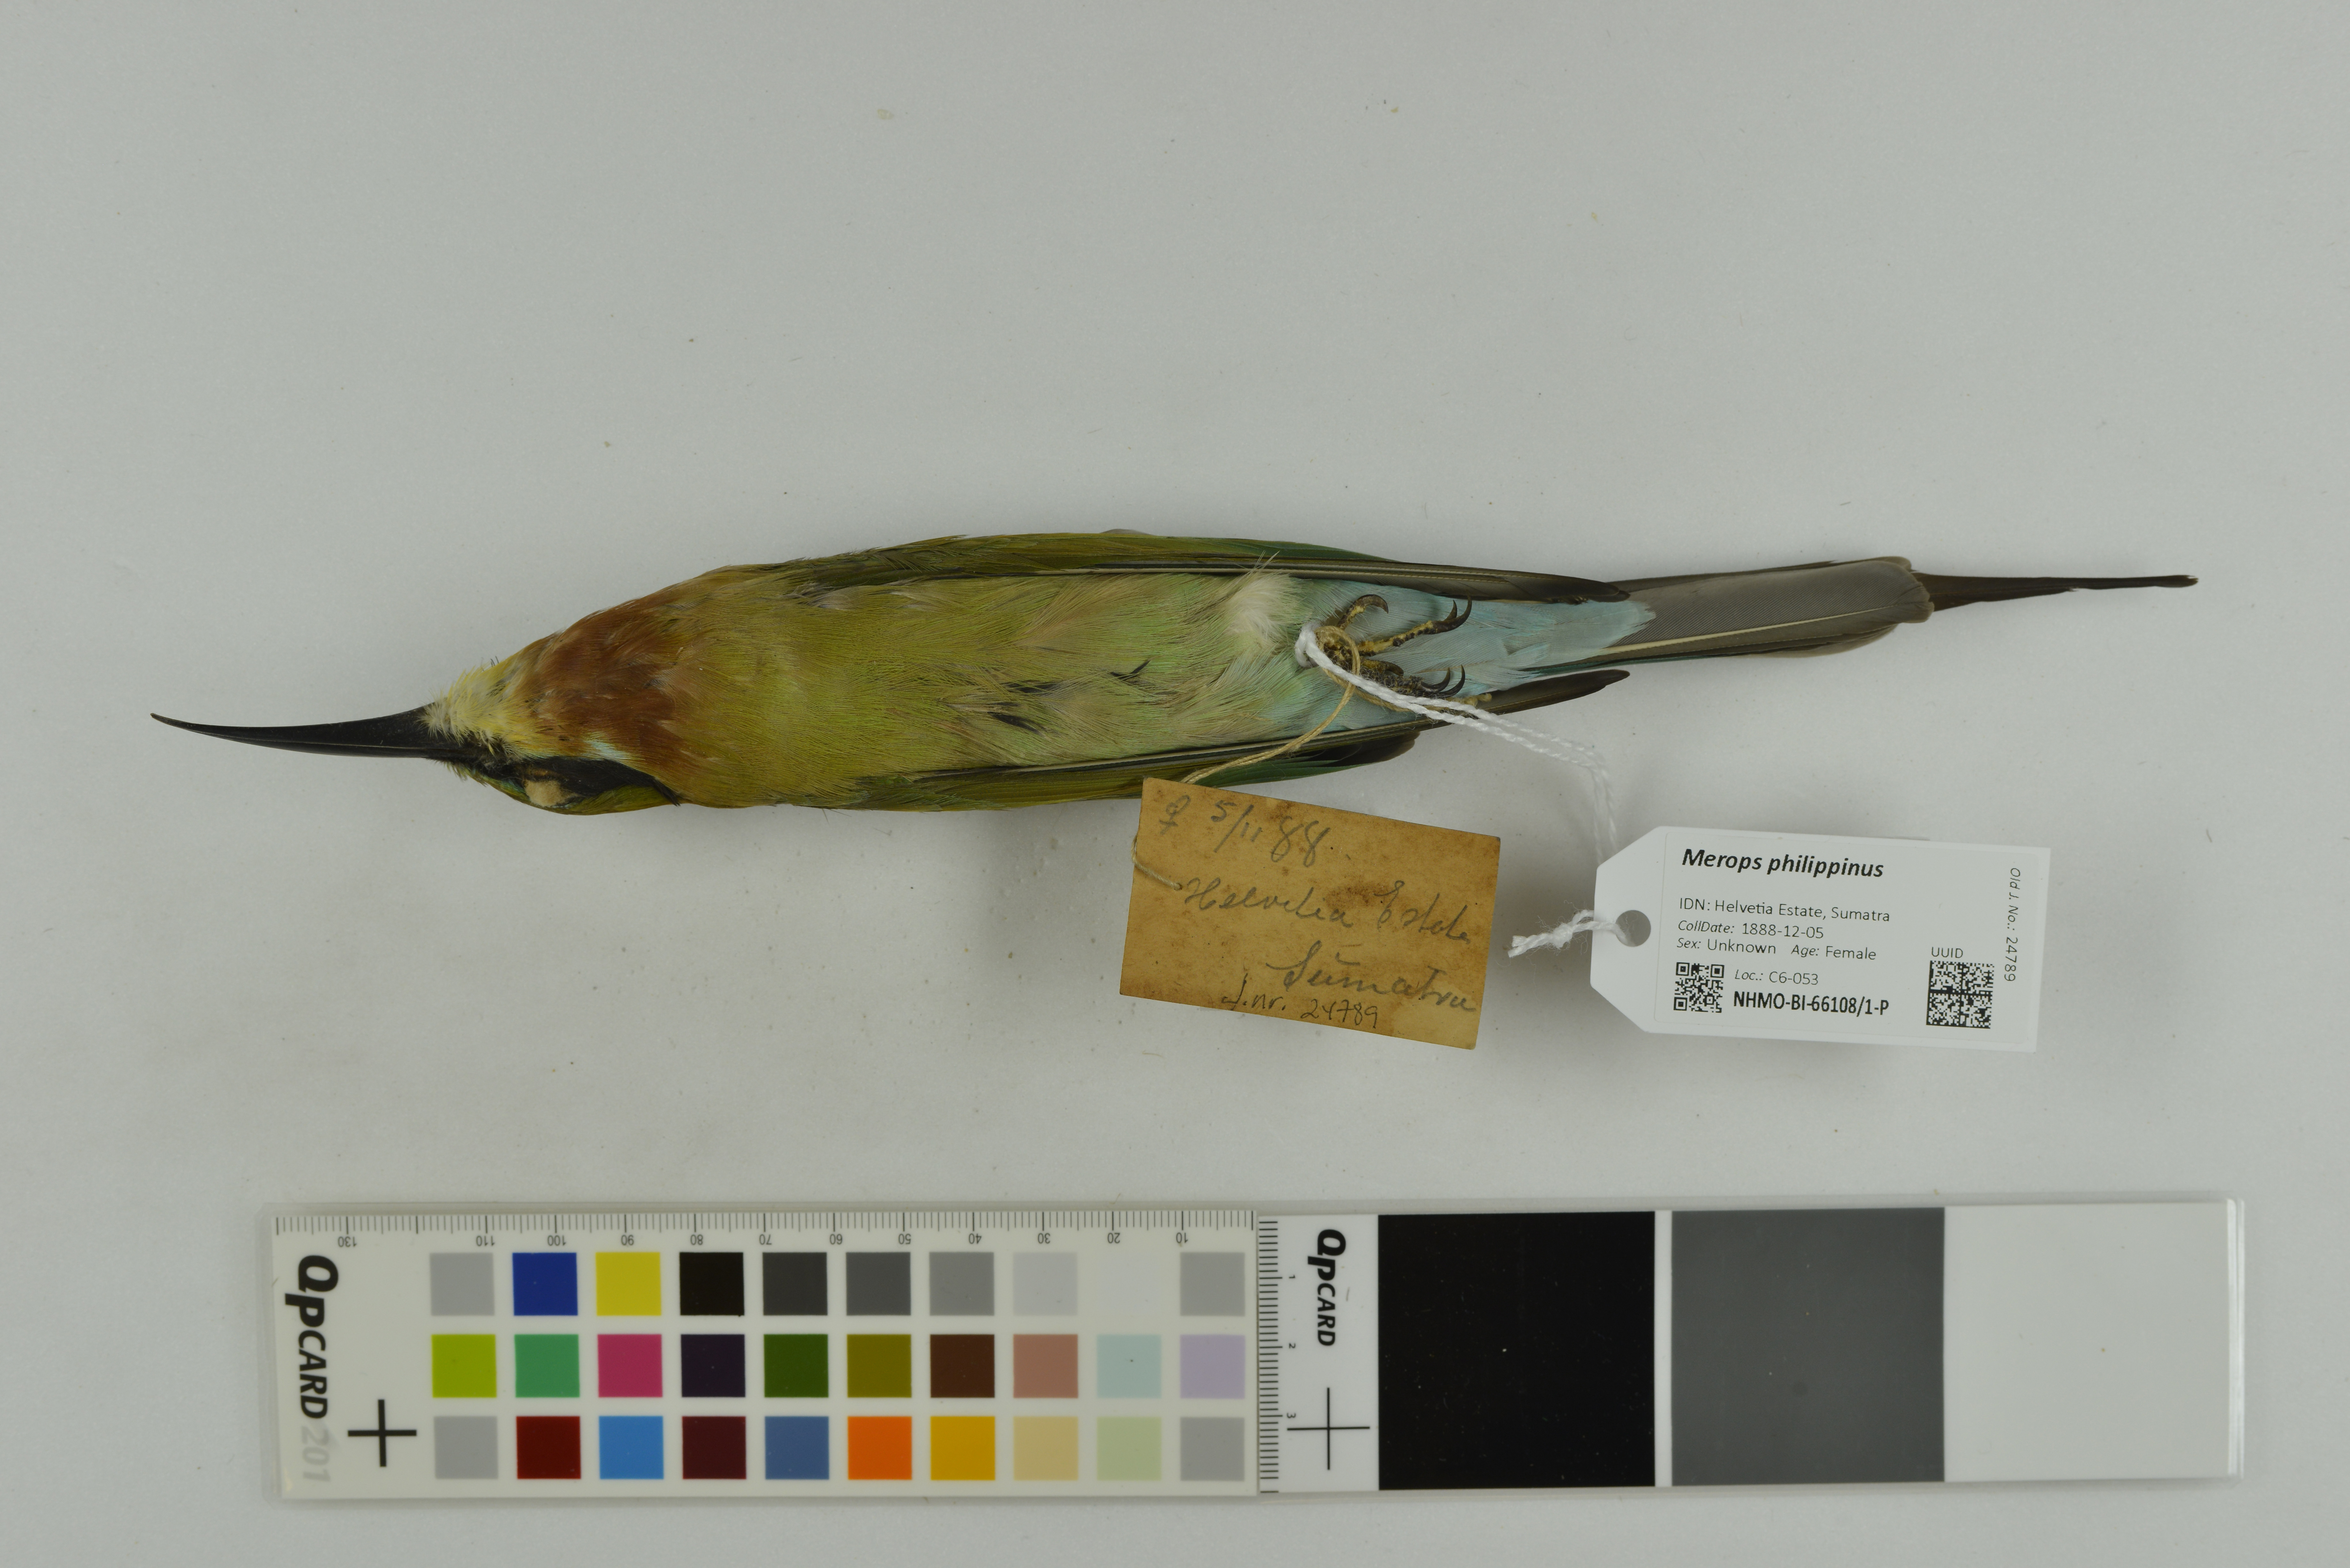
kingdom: Animalia
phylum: Chordata
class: Aves
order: Coraciiformes
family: Meropidae
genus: Merops
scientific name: Merops philippinus
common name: Blue-tailed bee-eater
